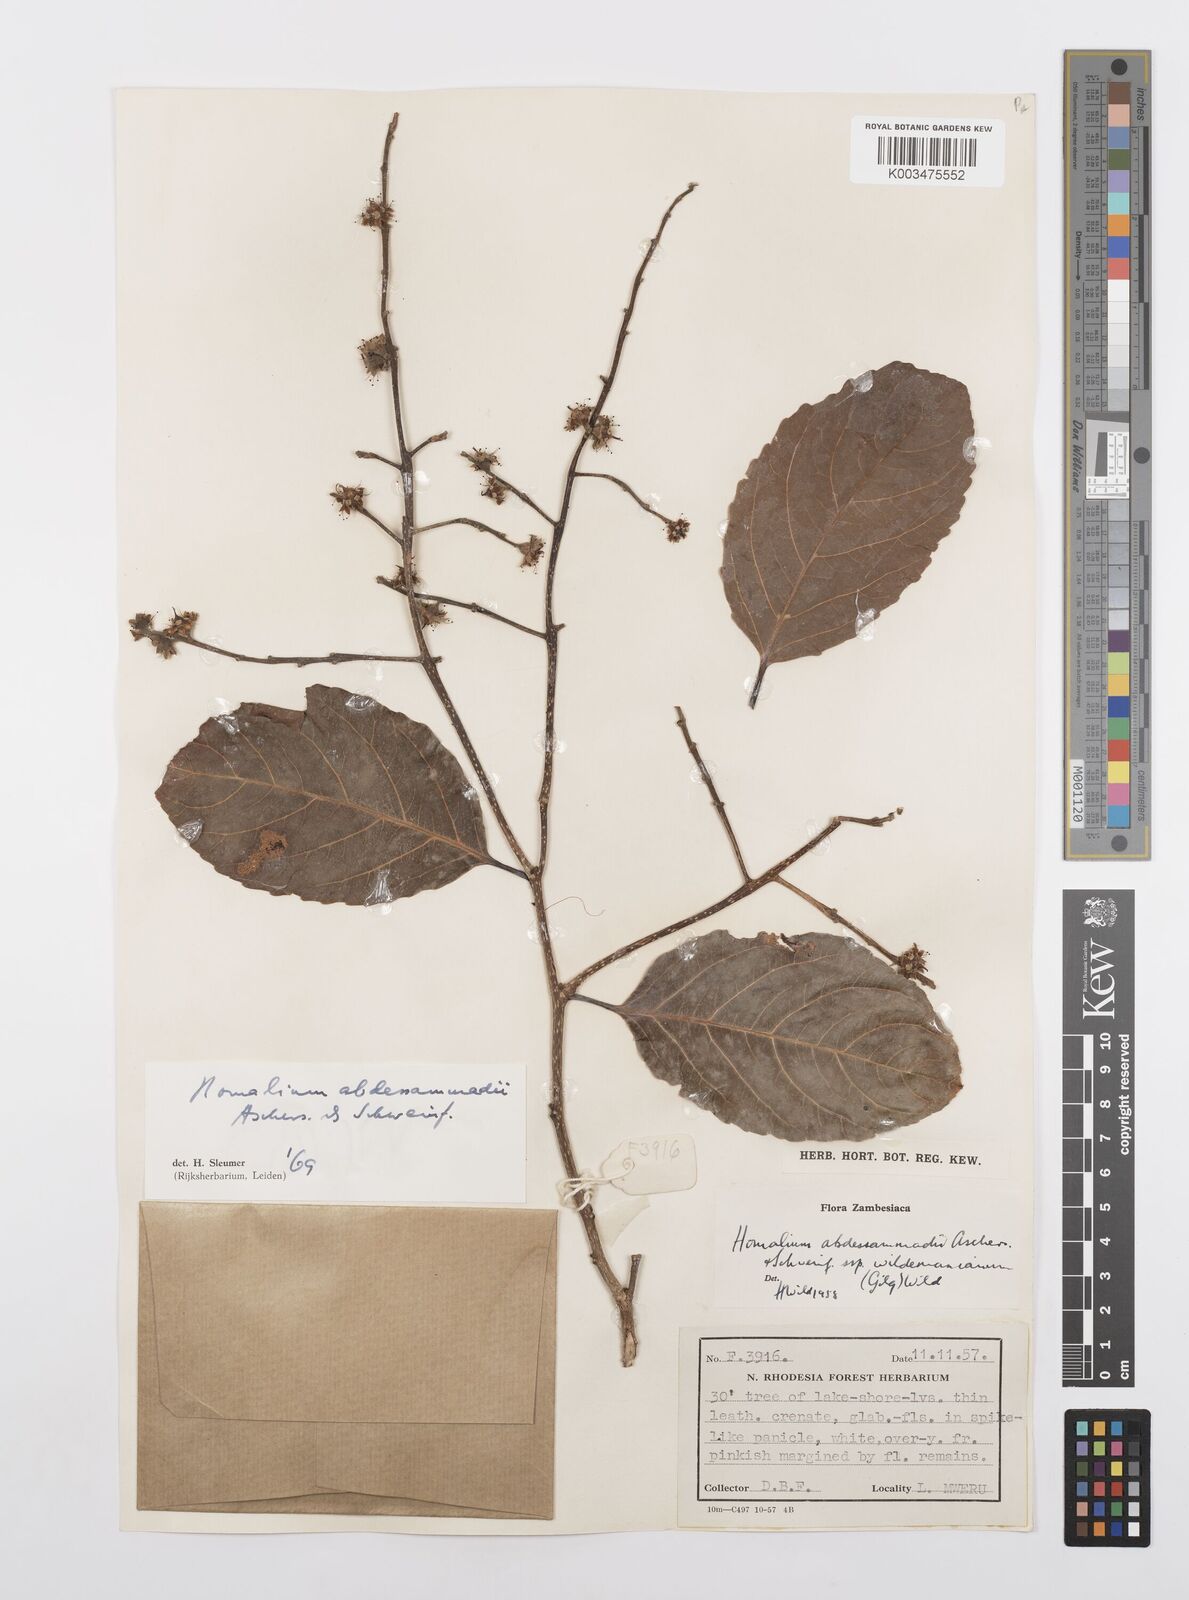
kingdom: Plantae
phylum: Tracheophyta
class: Magnoliopsida
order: Malpighiales
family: Salicaceae
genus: Homalium
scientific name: Homalium abdessammadii
